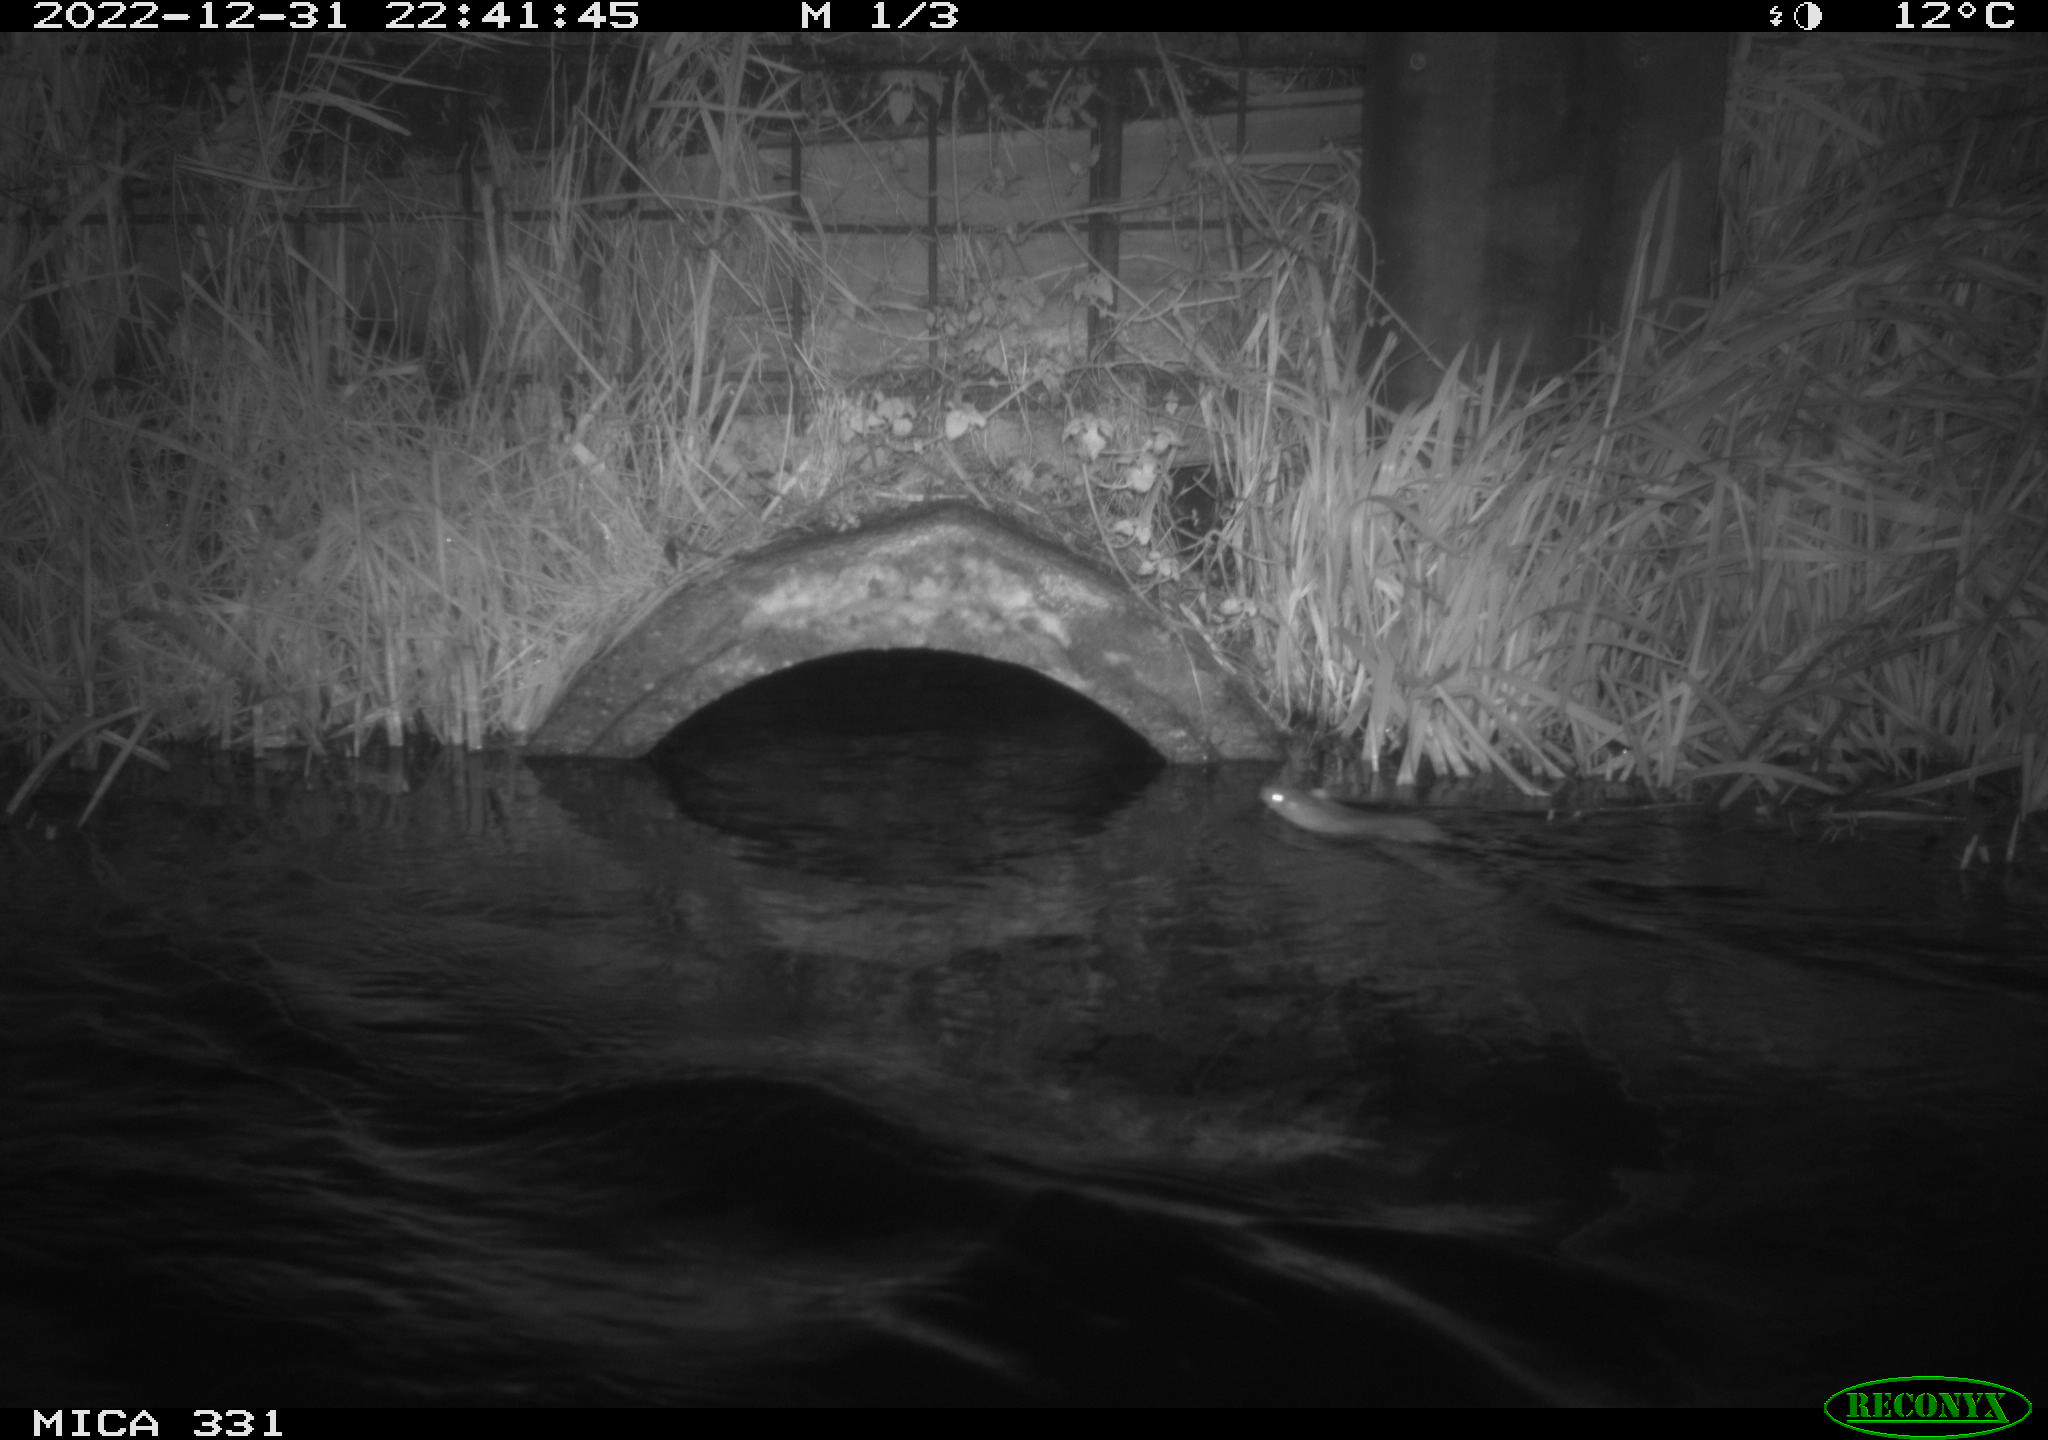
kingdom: Animalia
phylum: Chordata
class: Mammalia
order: Rodentia
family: Muridae
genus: Rattus
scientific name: Rattus norvegicus
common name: Brown rat
